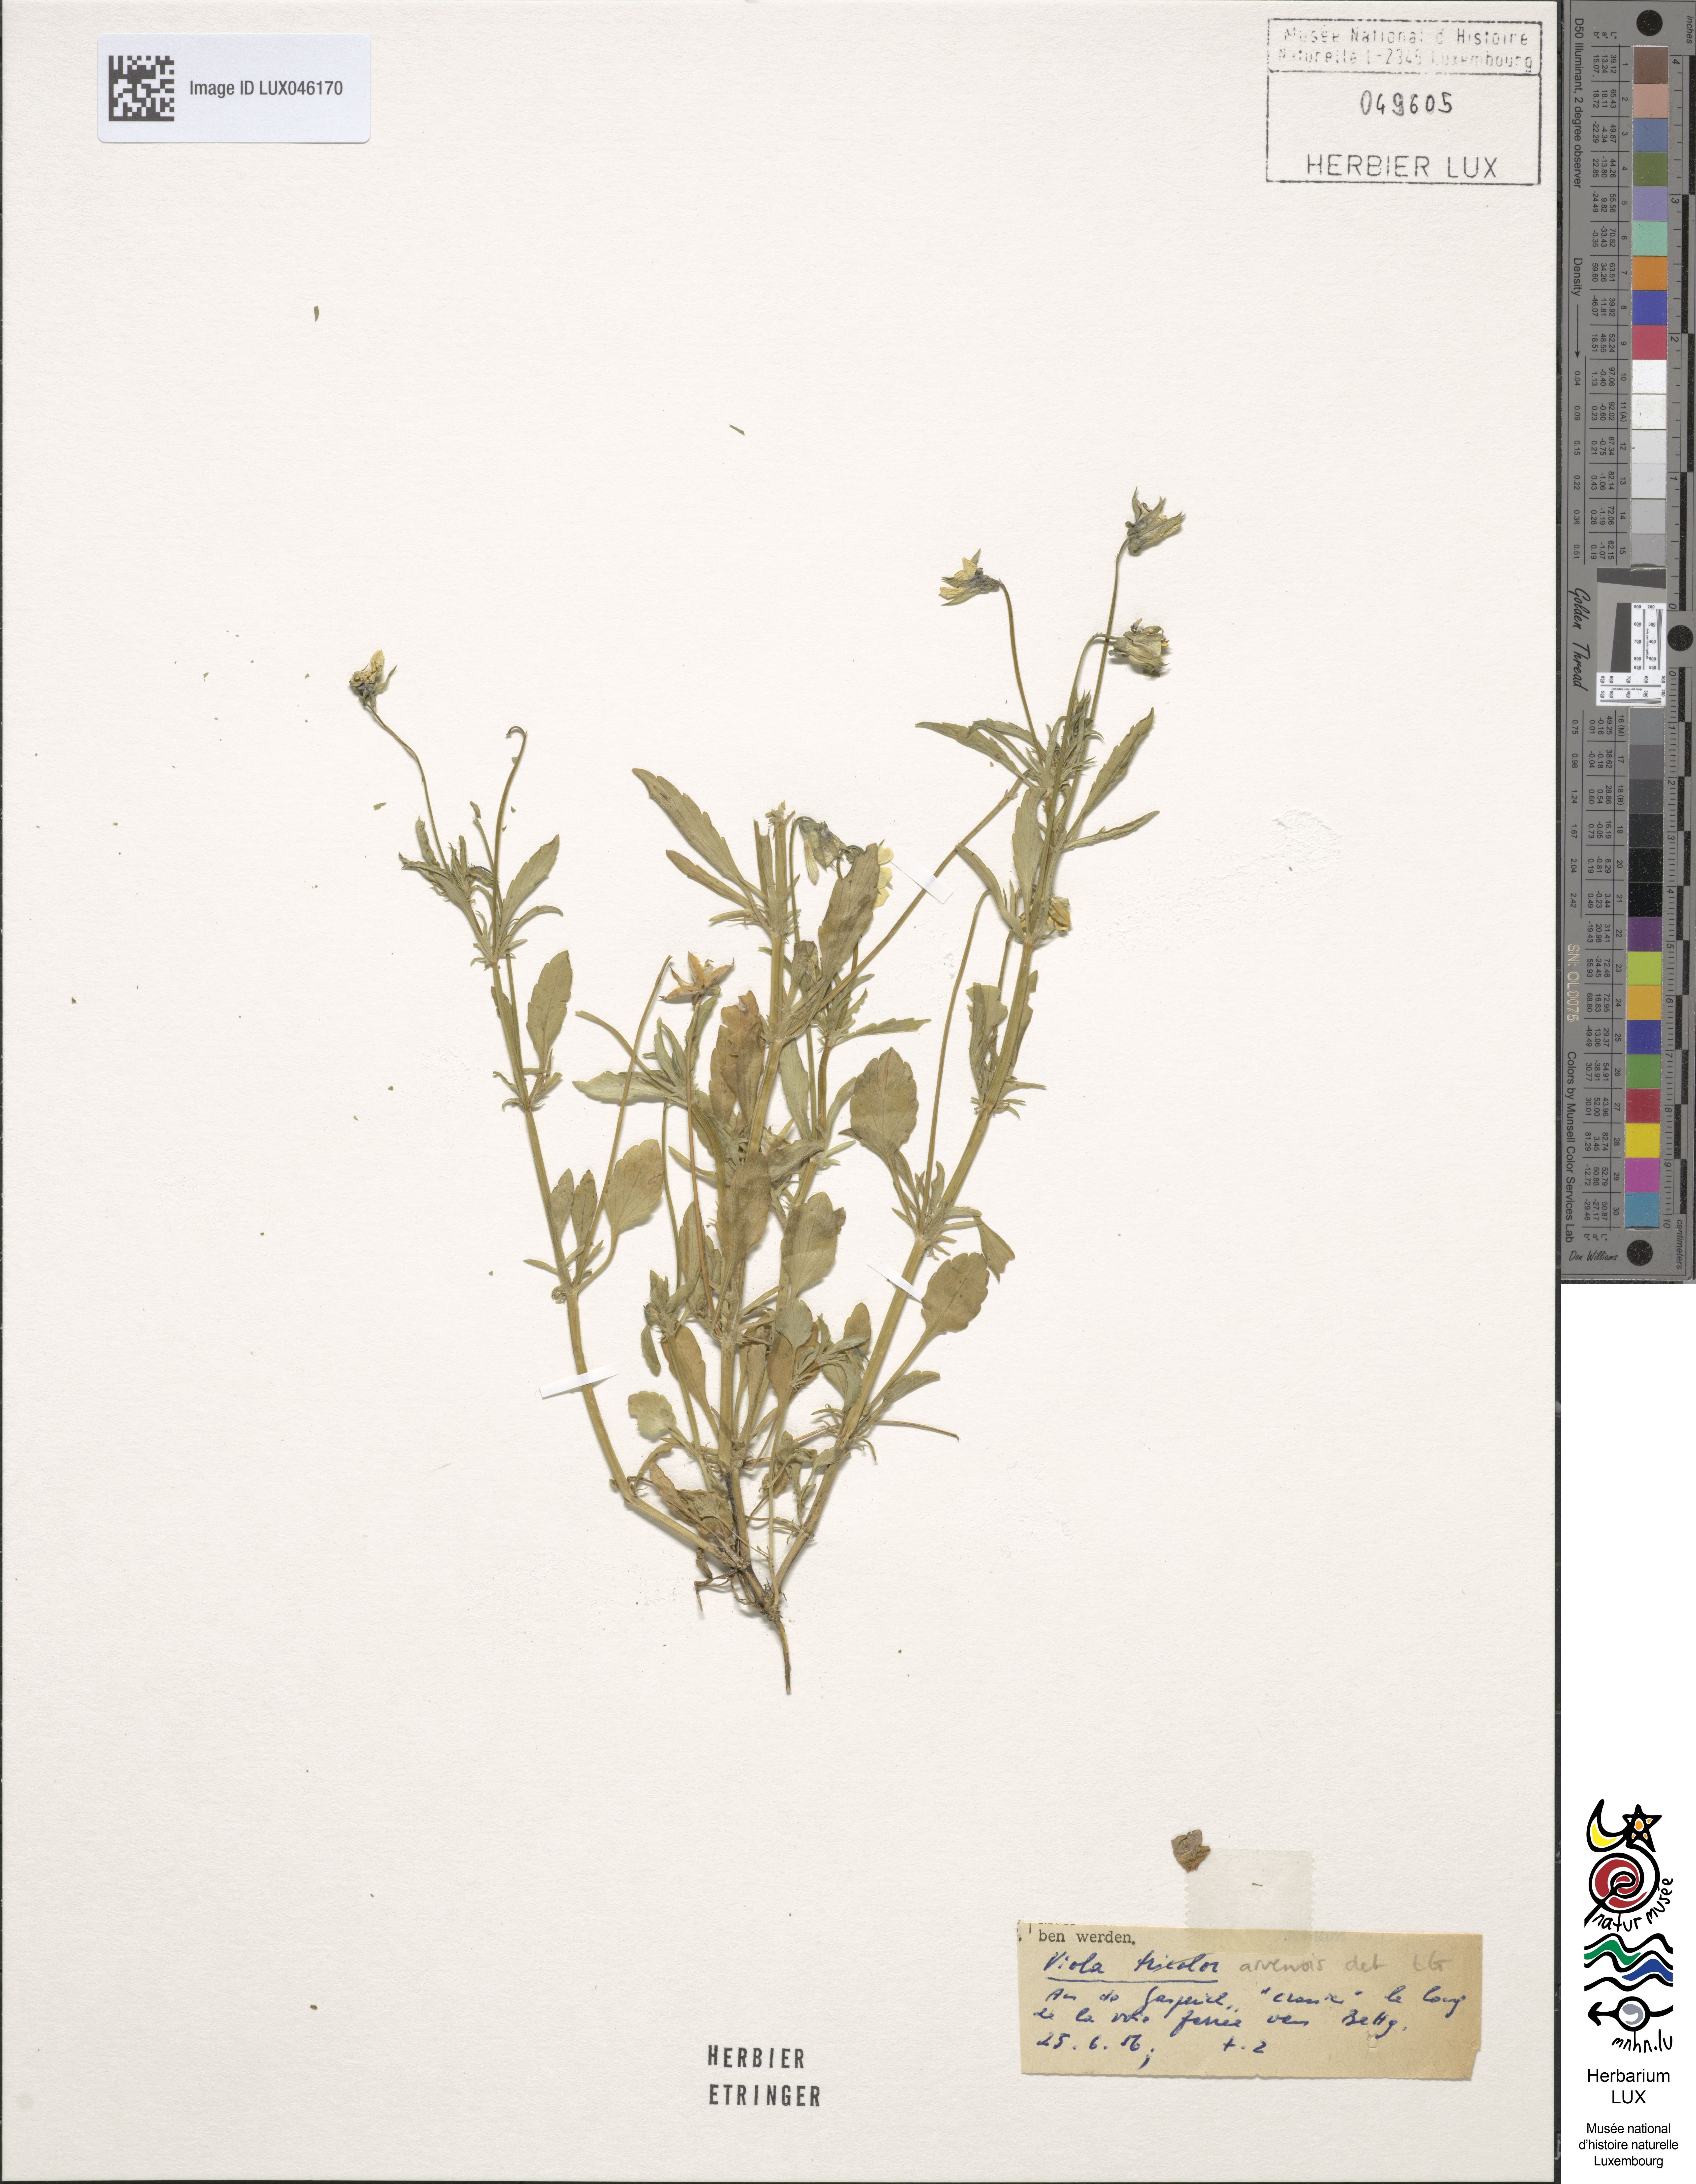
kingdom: Plantae
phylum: Tracheophyta
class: Magnoliopsida
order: Malpighiales
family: Violaceae
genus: Viola
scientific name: Viola arvensis
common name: Field pansy
